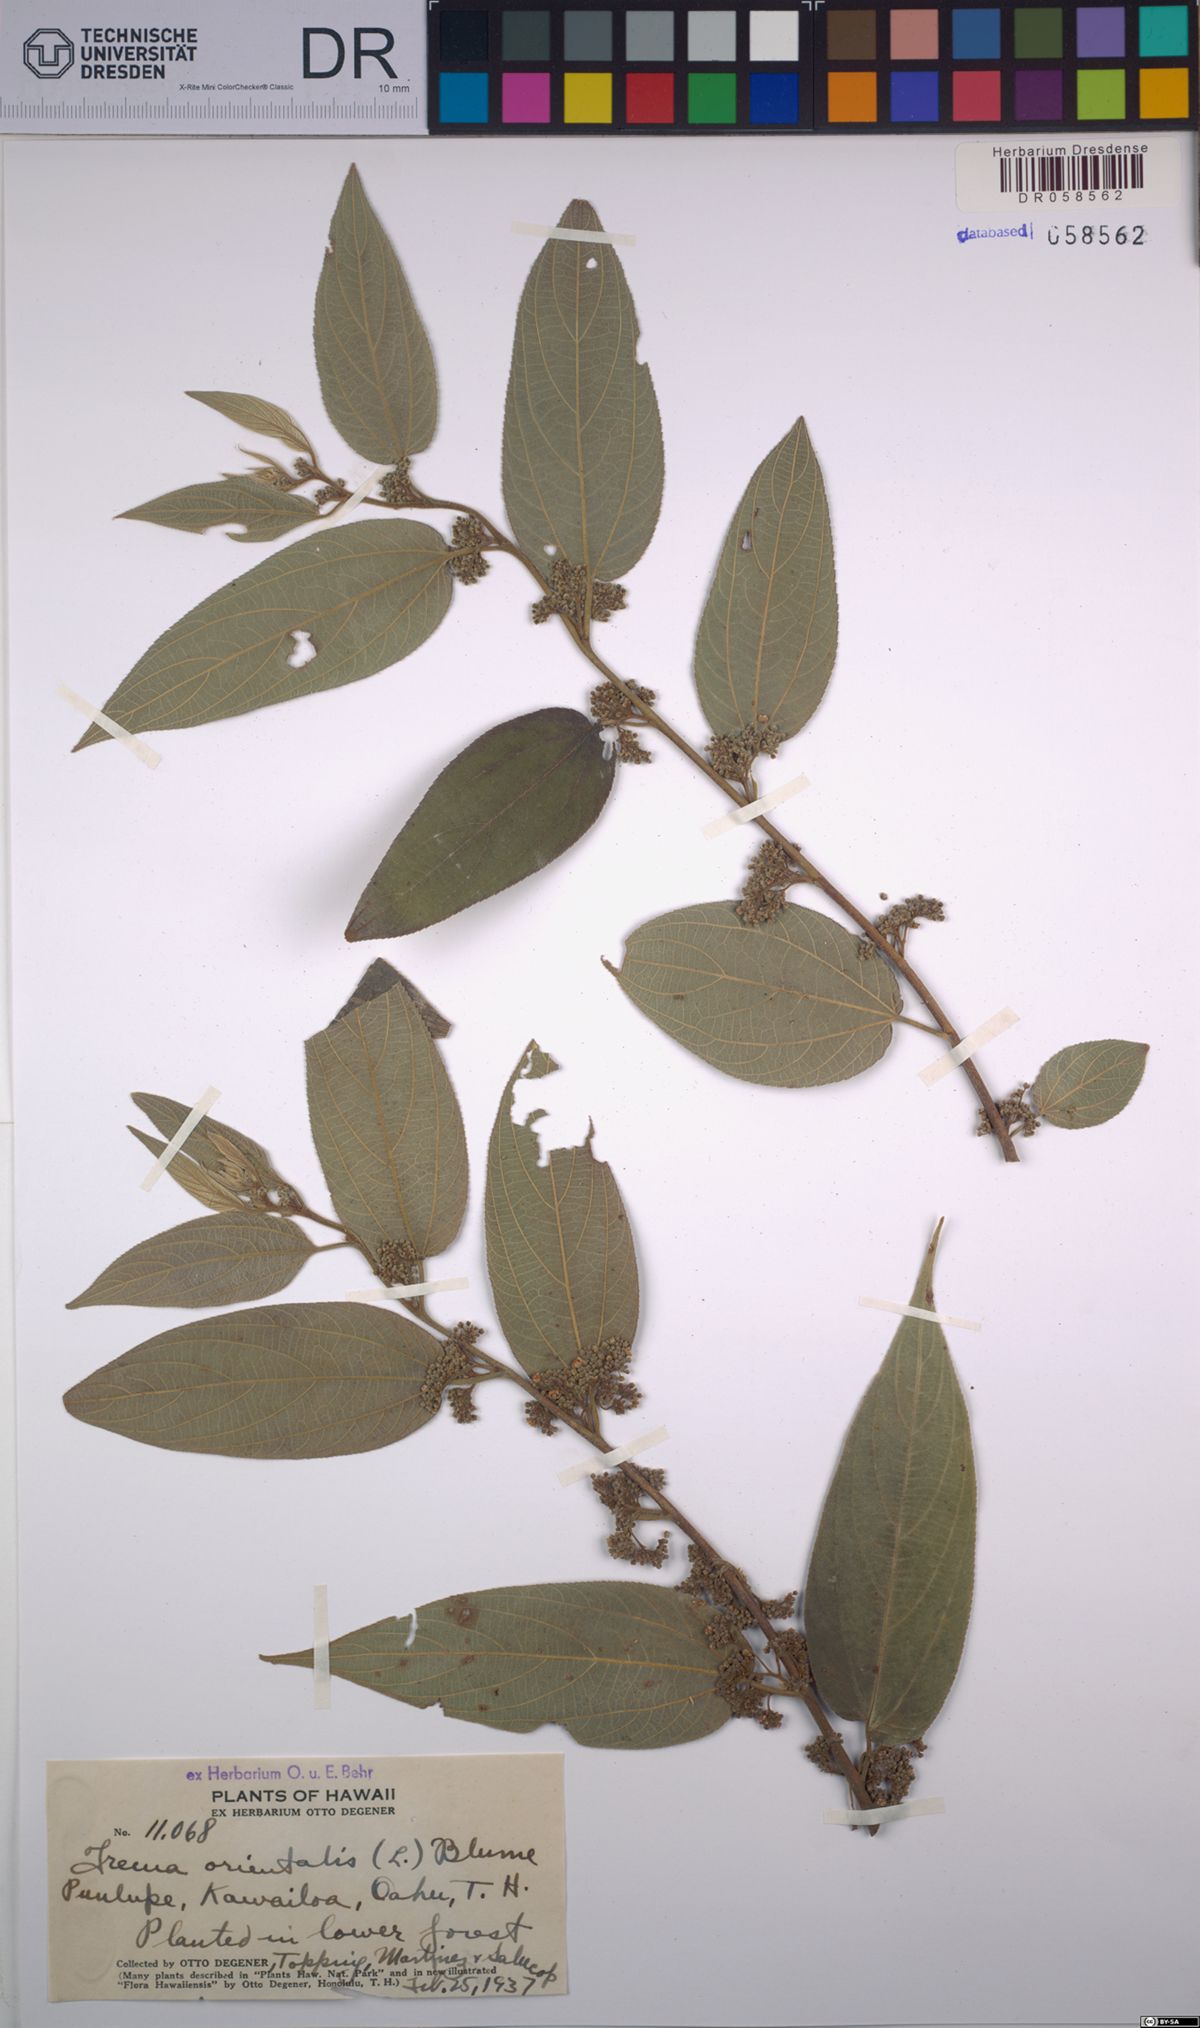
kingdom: Plantae
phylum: Tracheophyta
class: Magnoliopsida
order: Rosales
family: Cannabaceae
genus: Trema
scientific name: Trema orientale
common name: Indian charcoal tree
